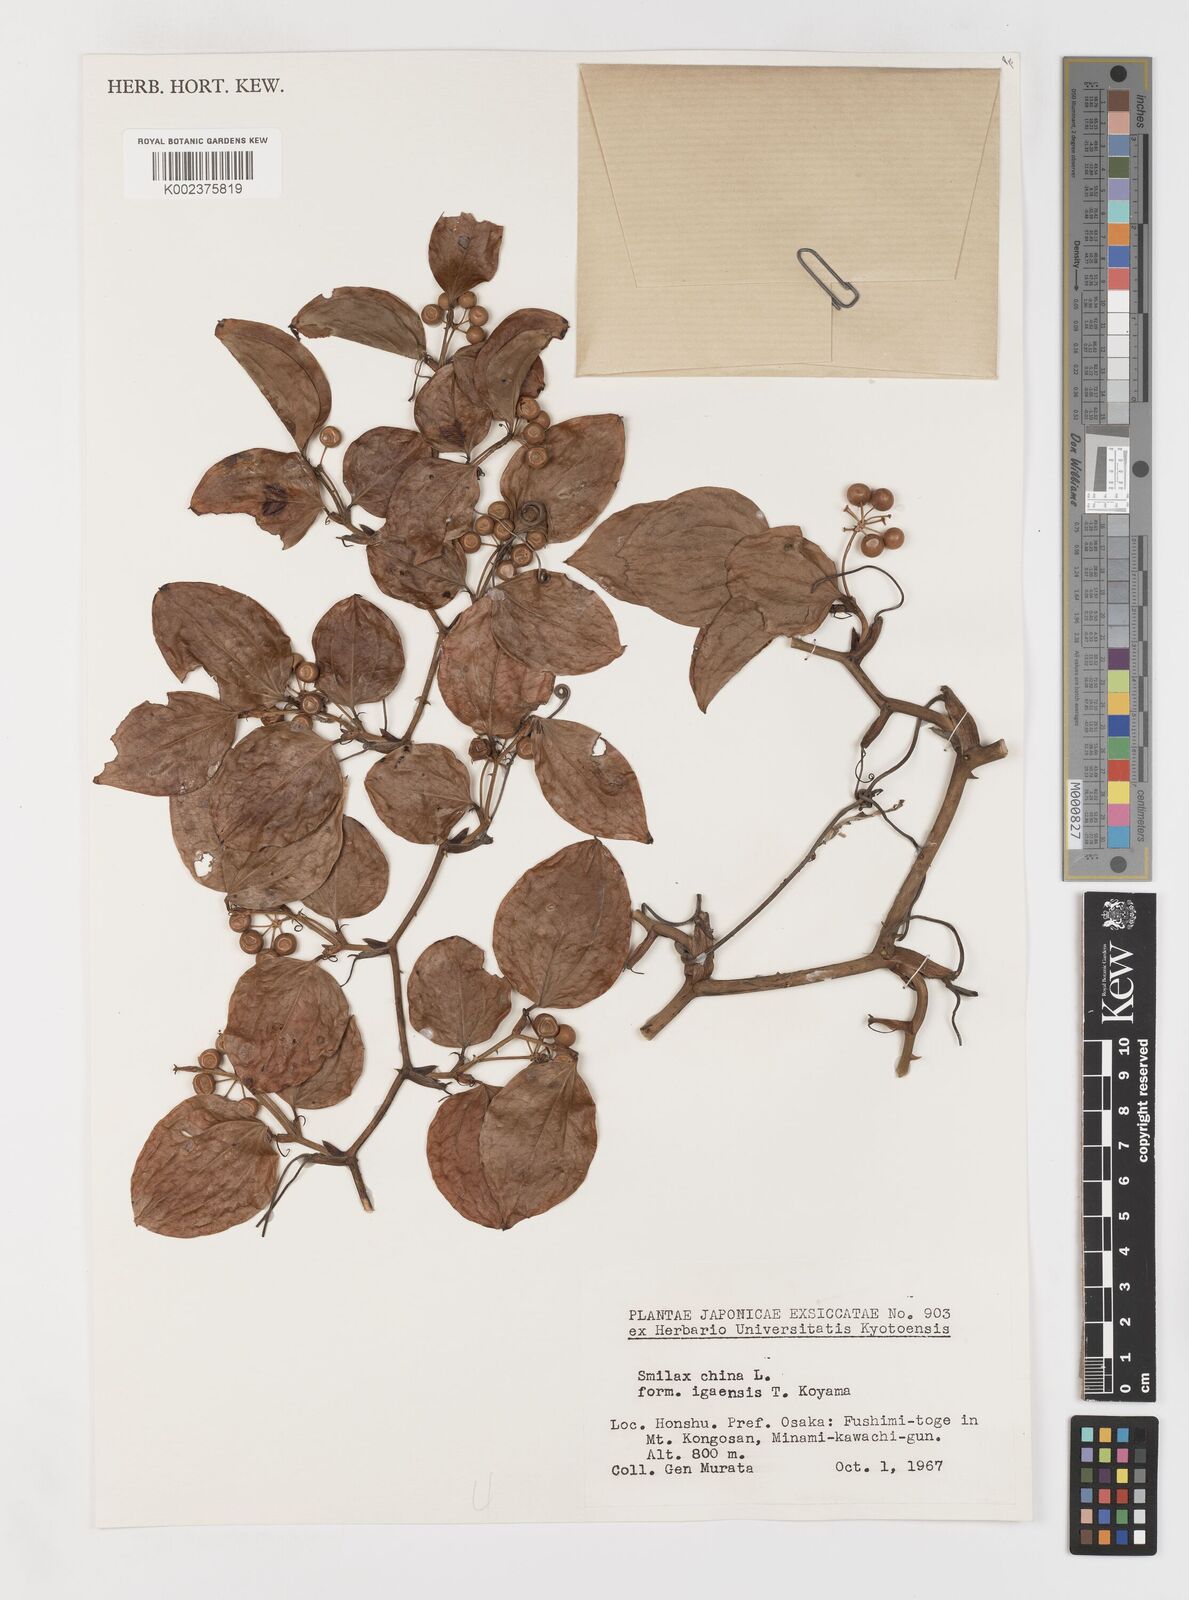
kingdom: Plantae
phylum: Tracheophyta
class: Liliopsida
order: Liliales
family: Smilacaceae
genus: Smilax
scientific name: Smilax china
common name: Chinaroot
